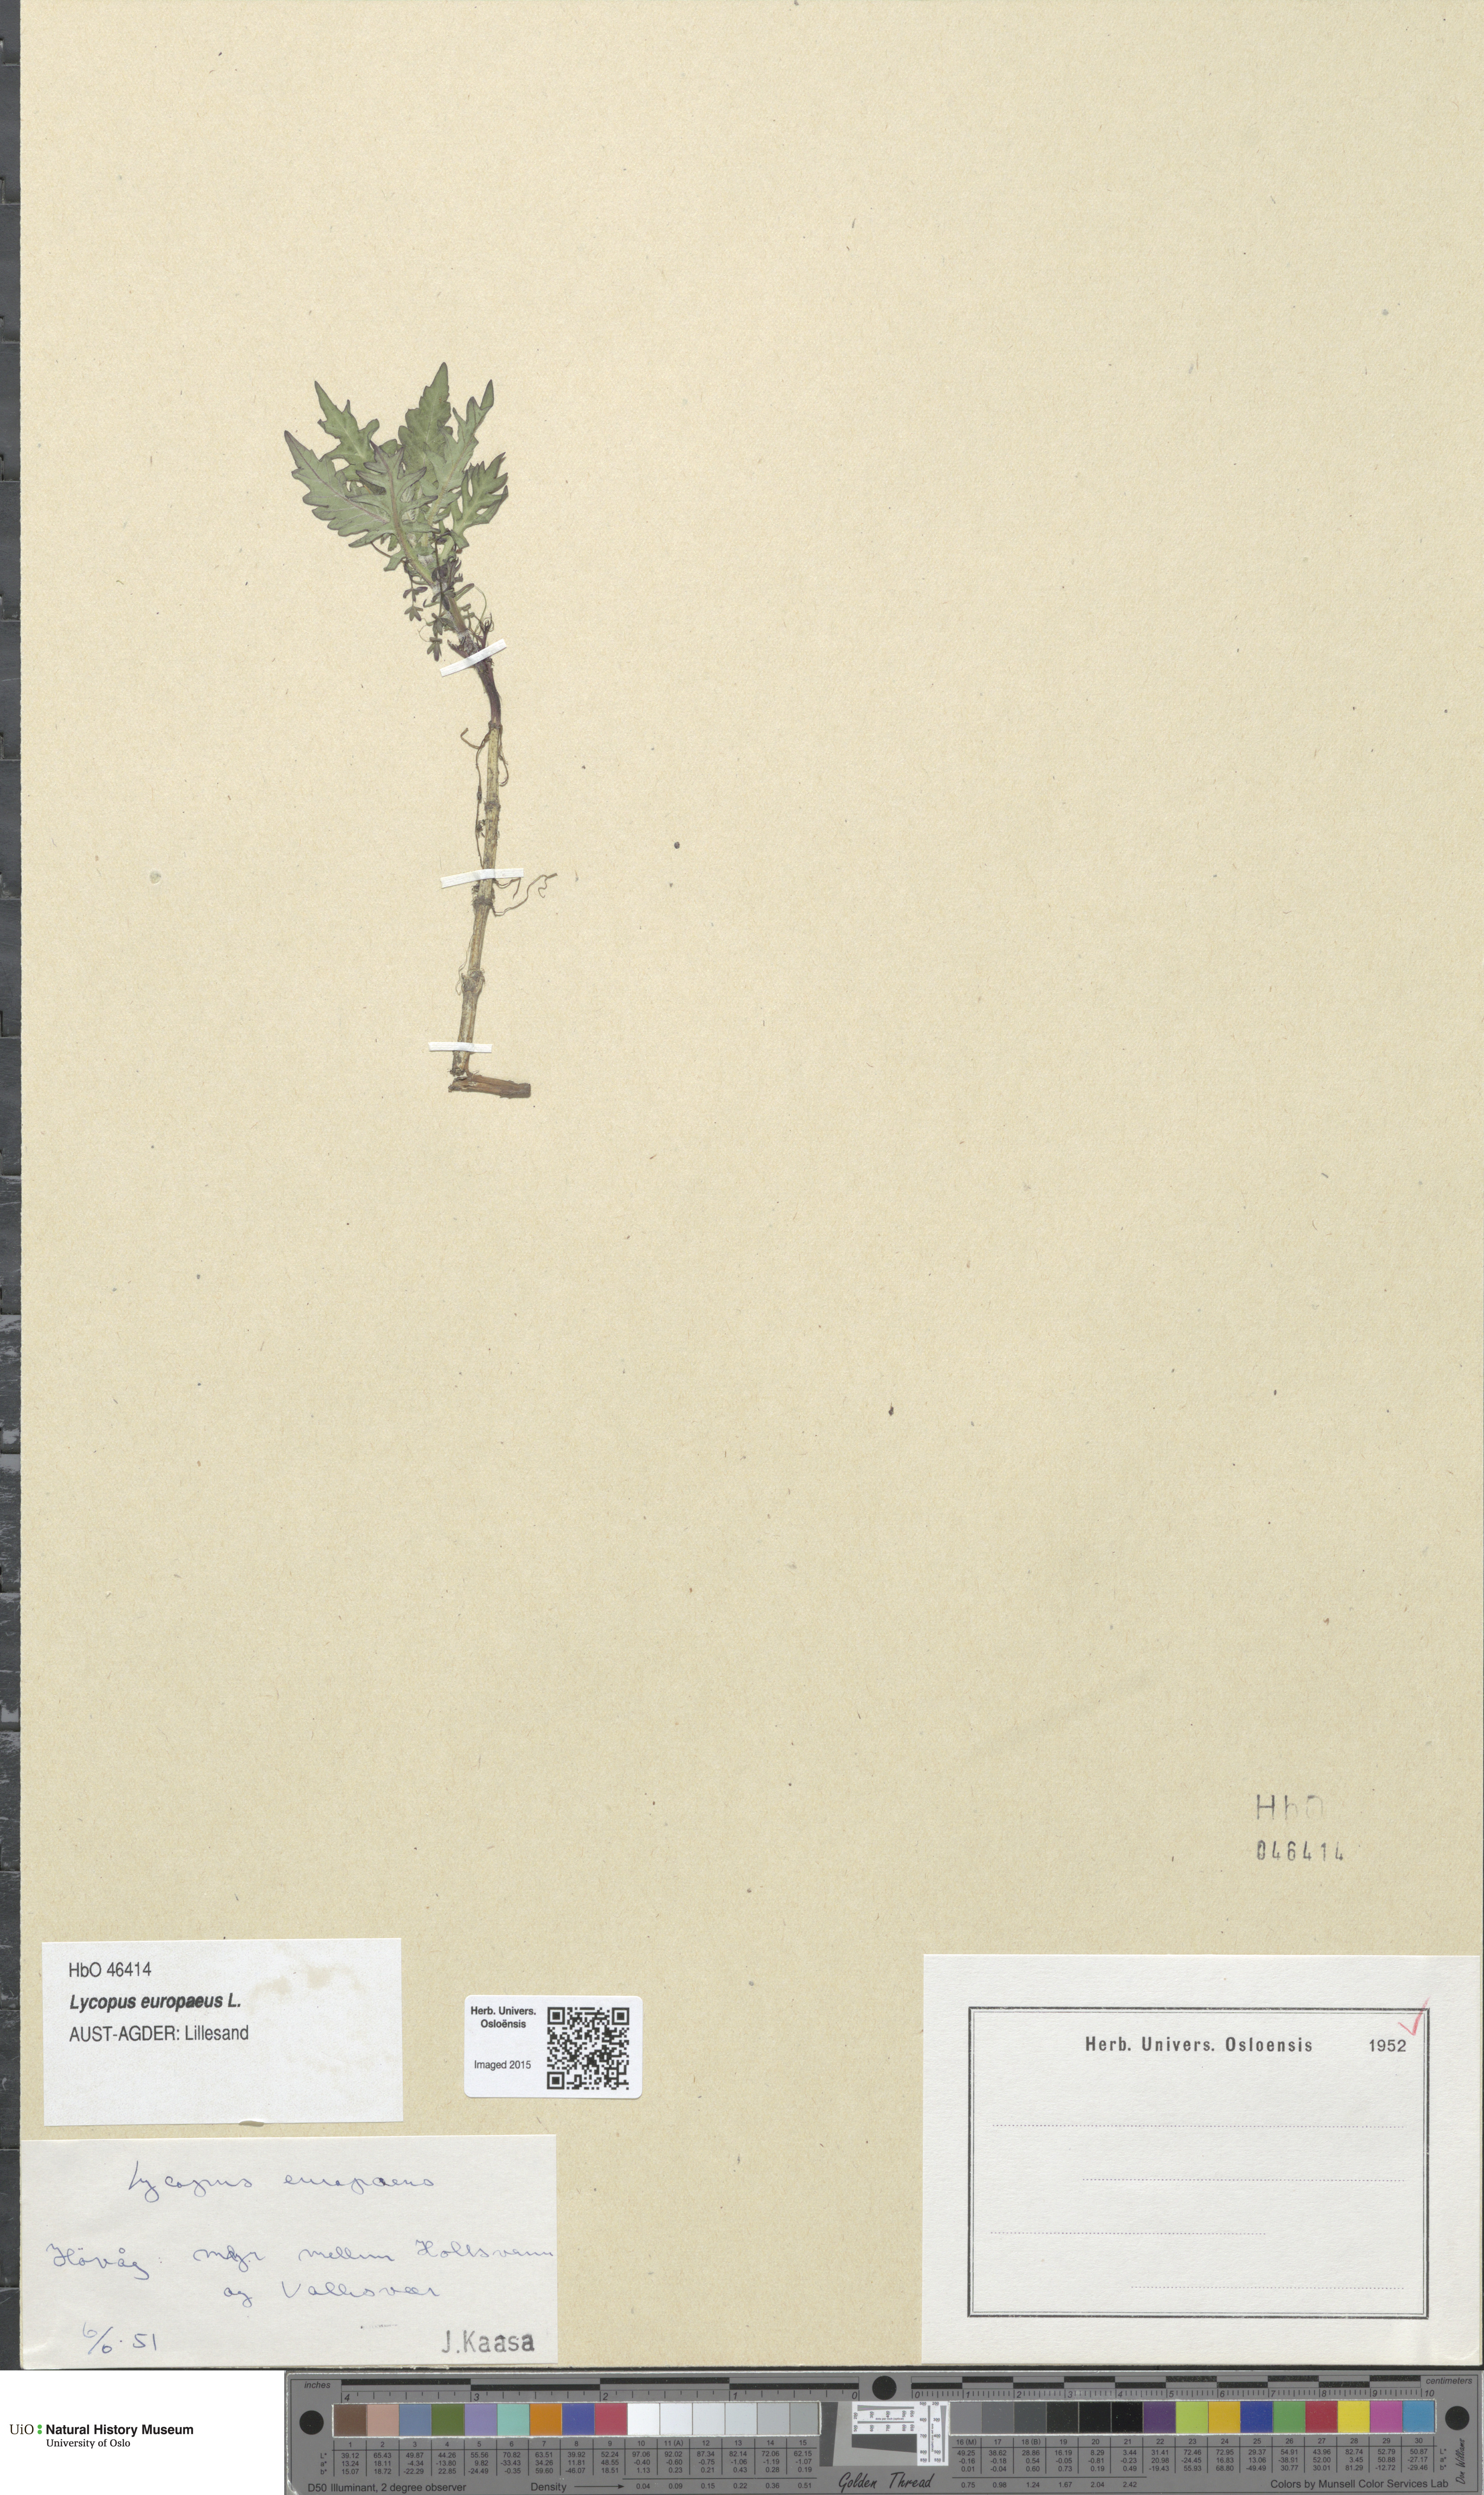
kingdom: Plantae
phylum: Tracheophyta
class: Magnoliopsida
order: Lamiales
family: Lamiaceae
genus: Lycopus
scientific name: Lycopus europaeus
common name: European bugleweed
